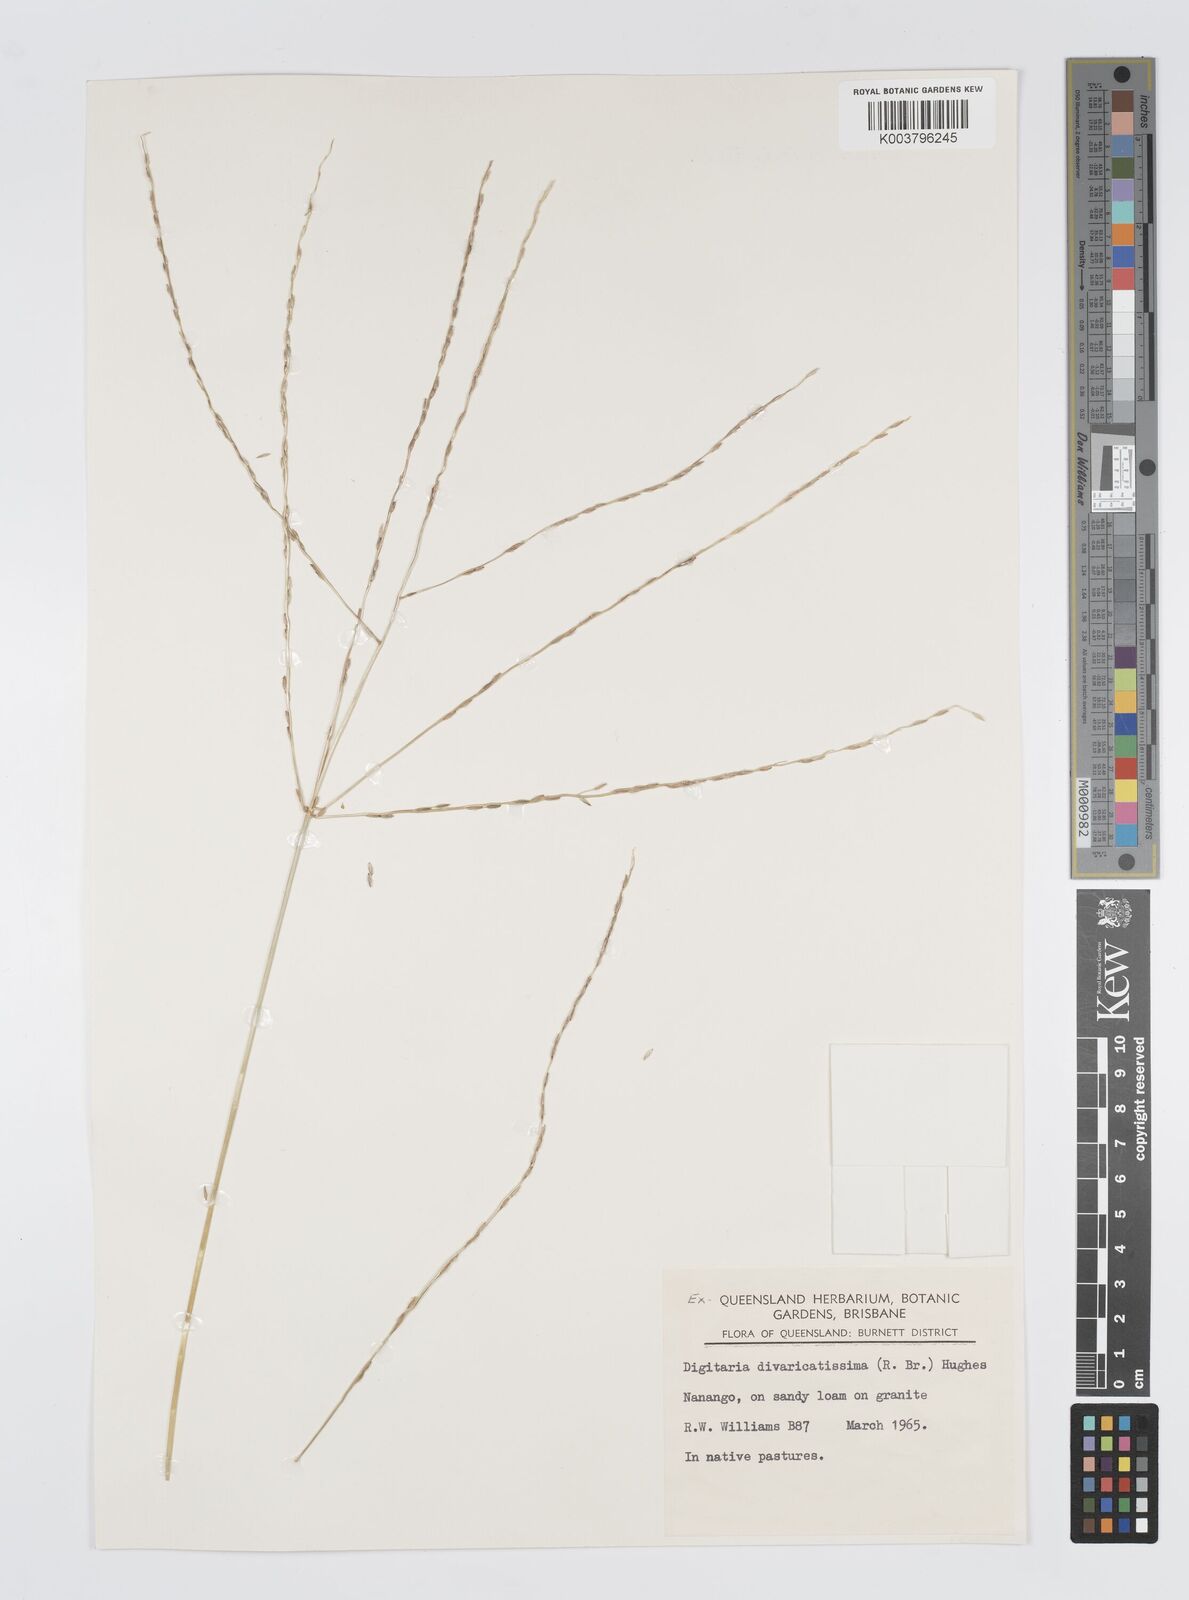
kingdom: Plantae
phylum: Tracheophyta
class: Liliopsida
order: Poales
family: Poaceae
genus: Digitaria
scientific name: Digitaria divaricatissima
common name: Crabgrass
